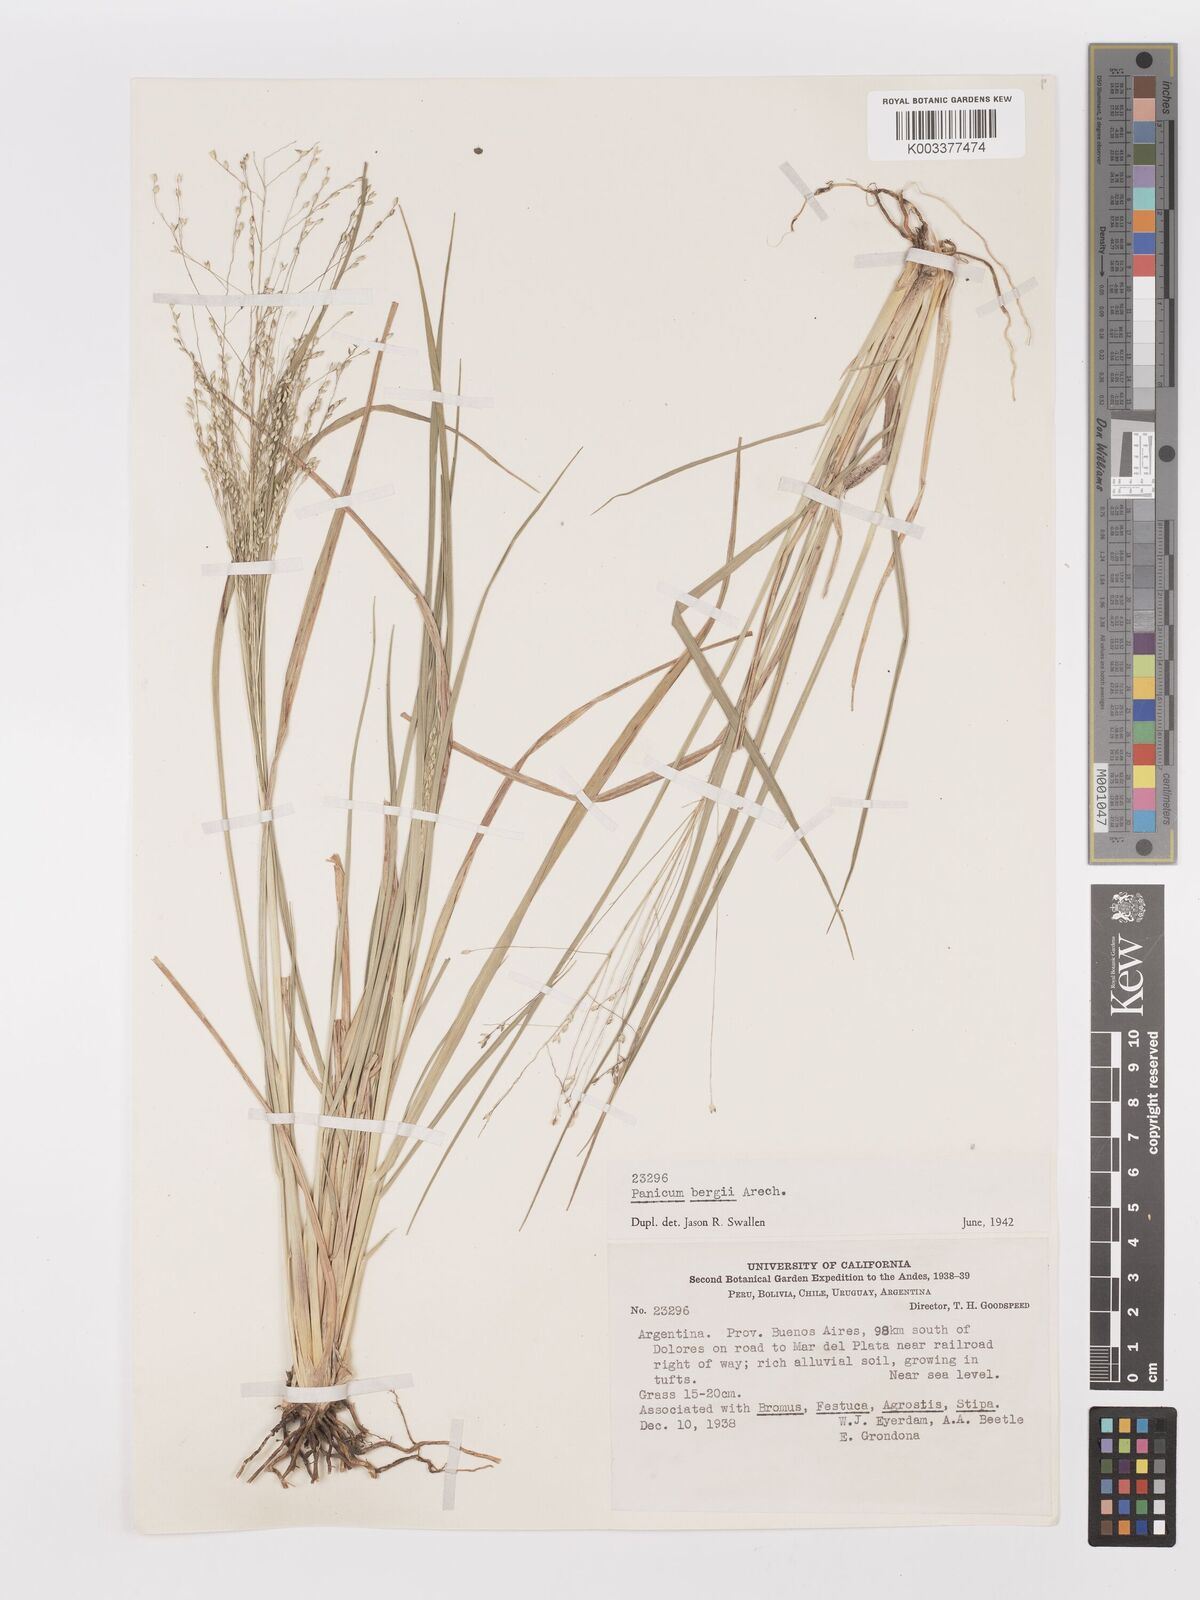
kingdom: Plantae
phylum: Tracheophyta
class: Liliopsida
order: Poales
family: Poaceae
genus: Panicum
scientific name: Panicum bergii
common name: Berg's panicgrass
